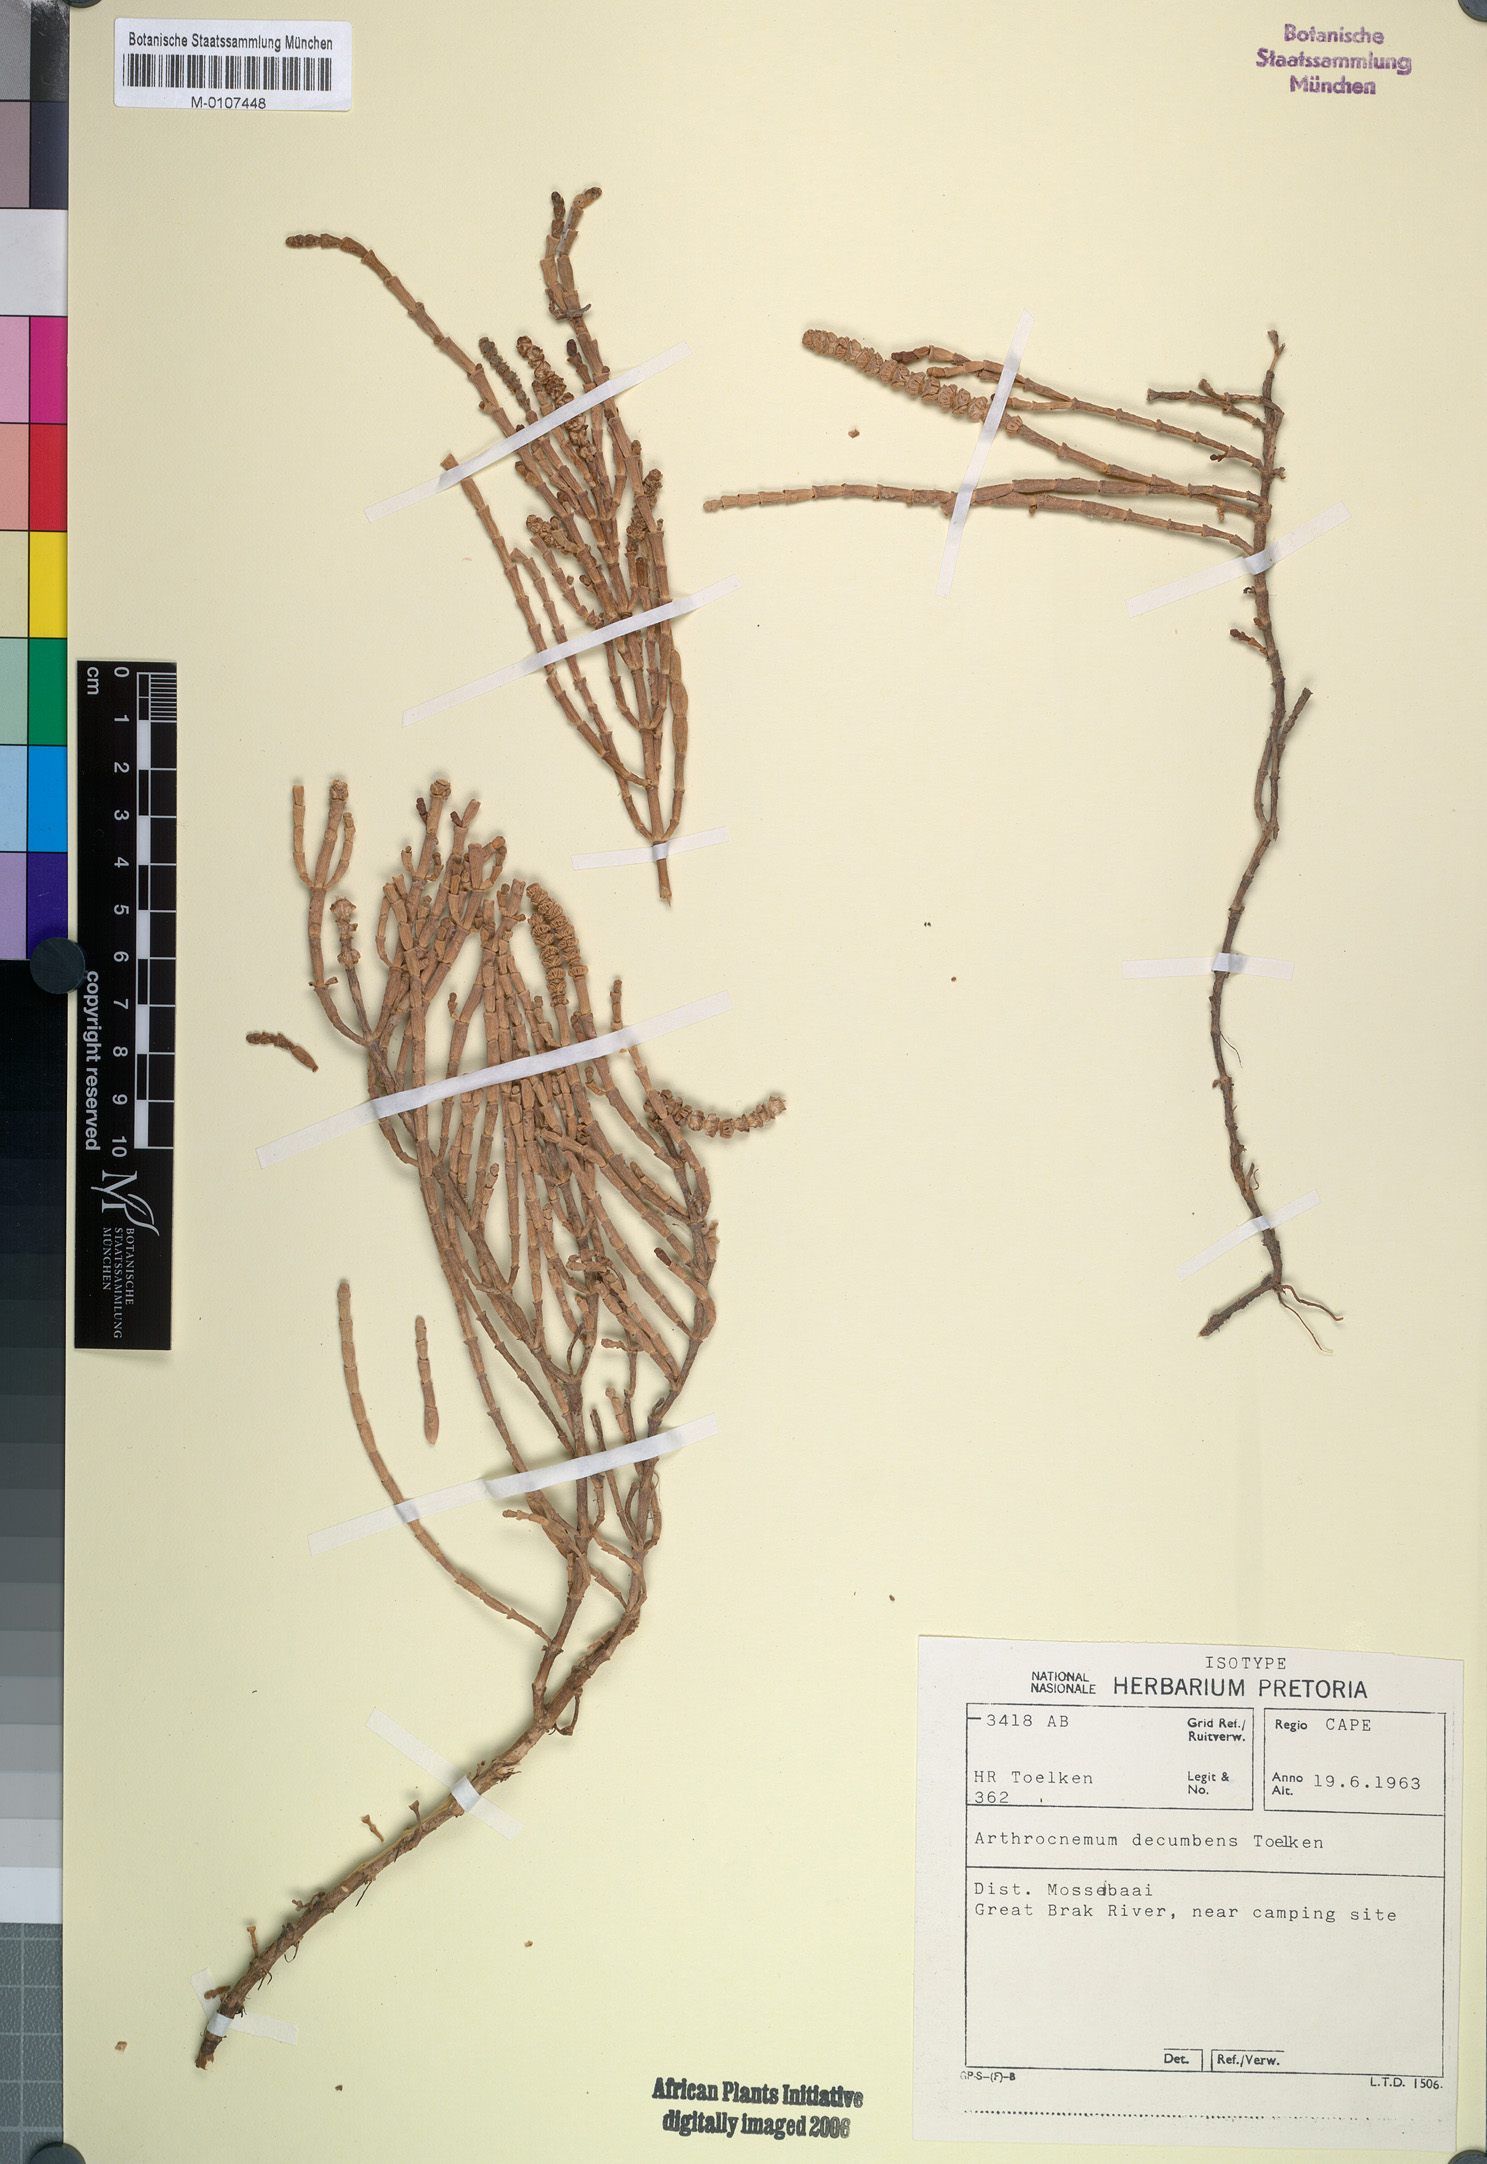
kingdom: Plantae
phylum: Tracheophyta
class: Magnoliopsida
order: Caryophyllales
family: Amaranthaceae
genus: Salicornia
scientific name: Salicornia decumbens
